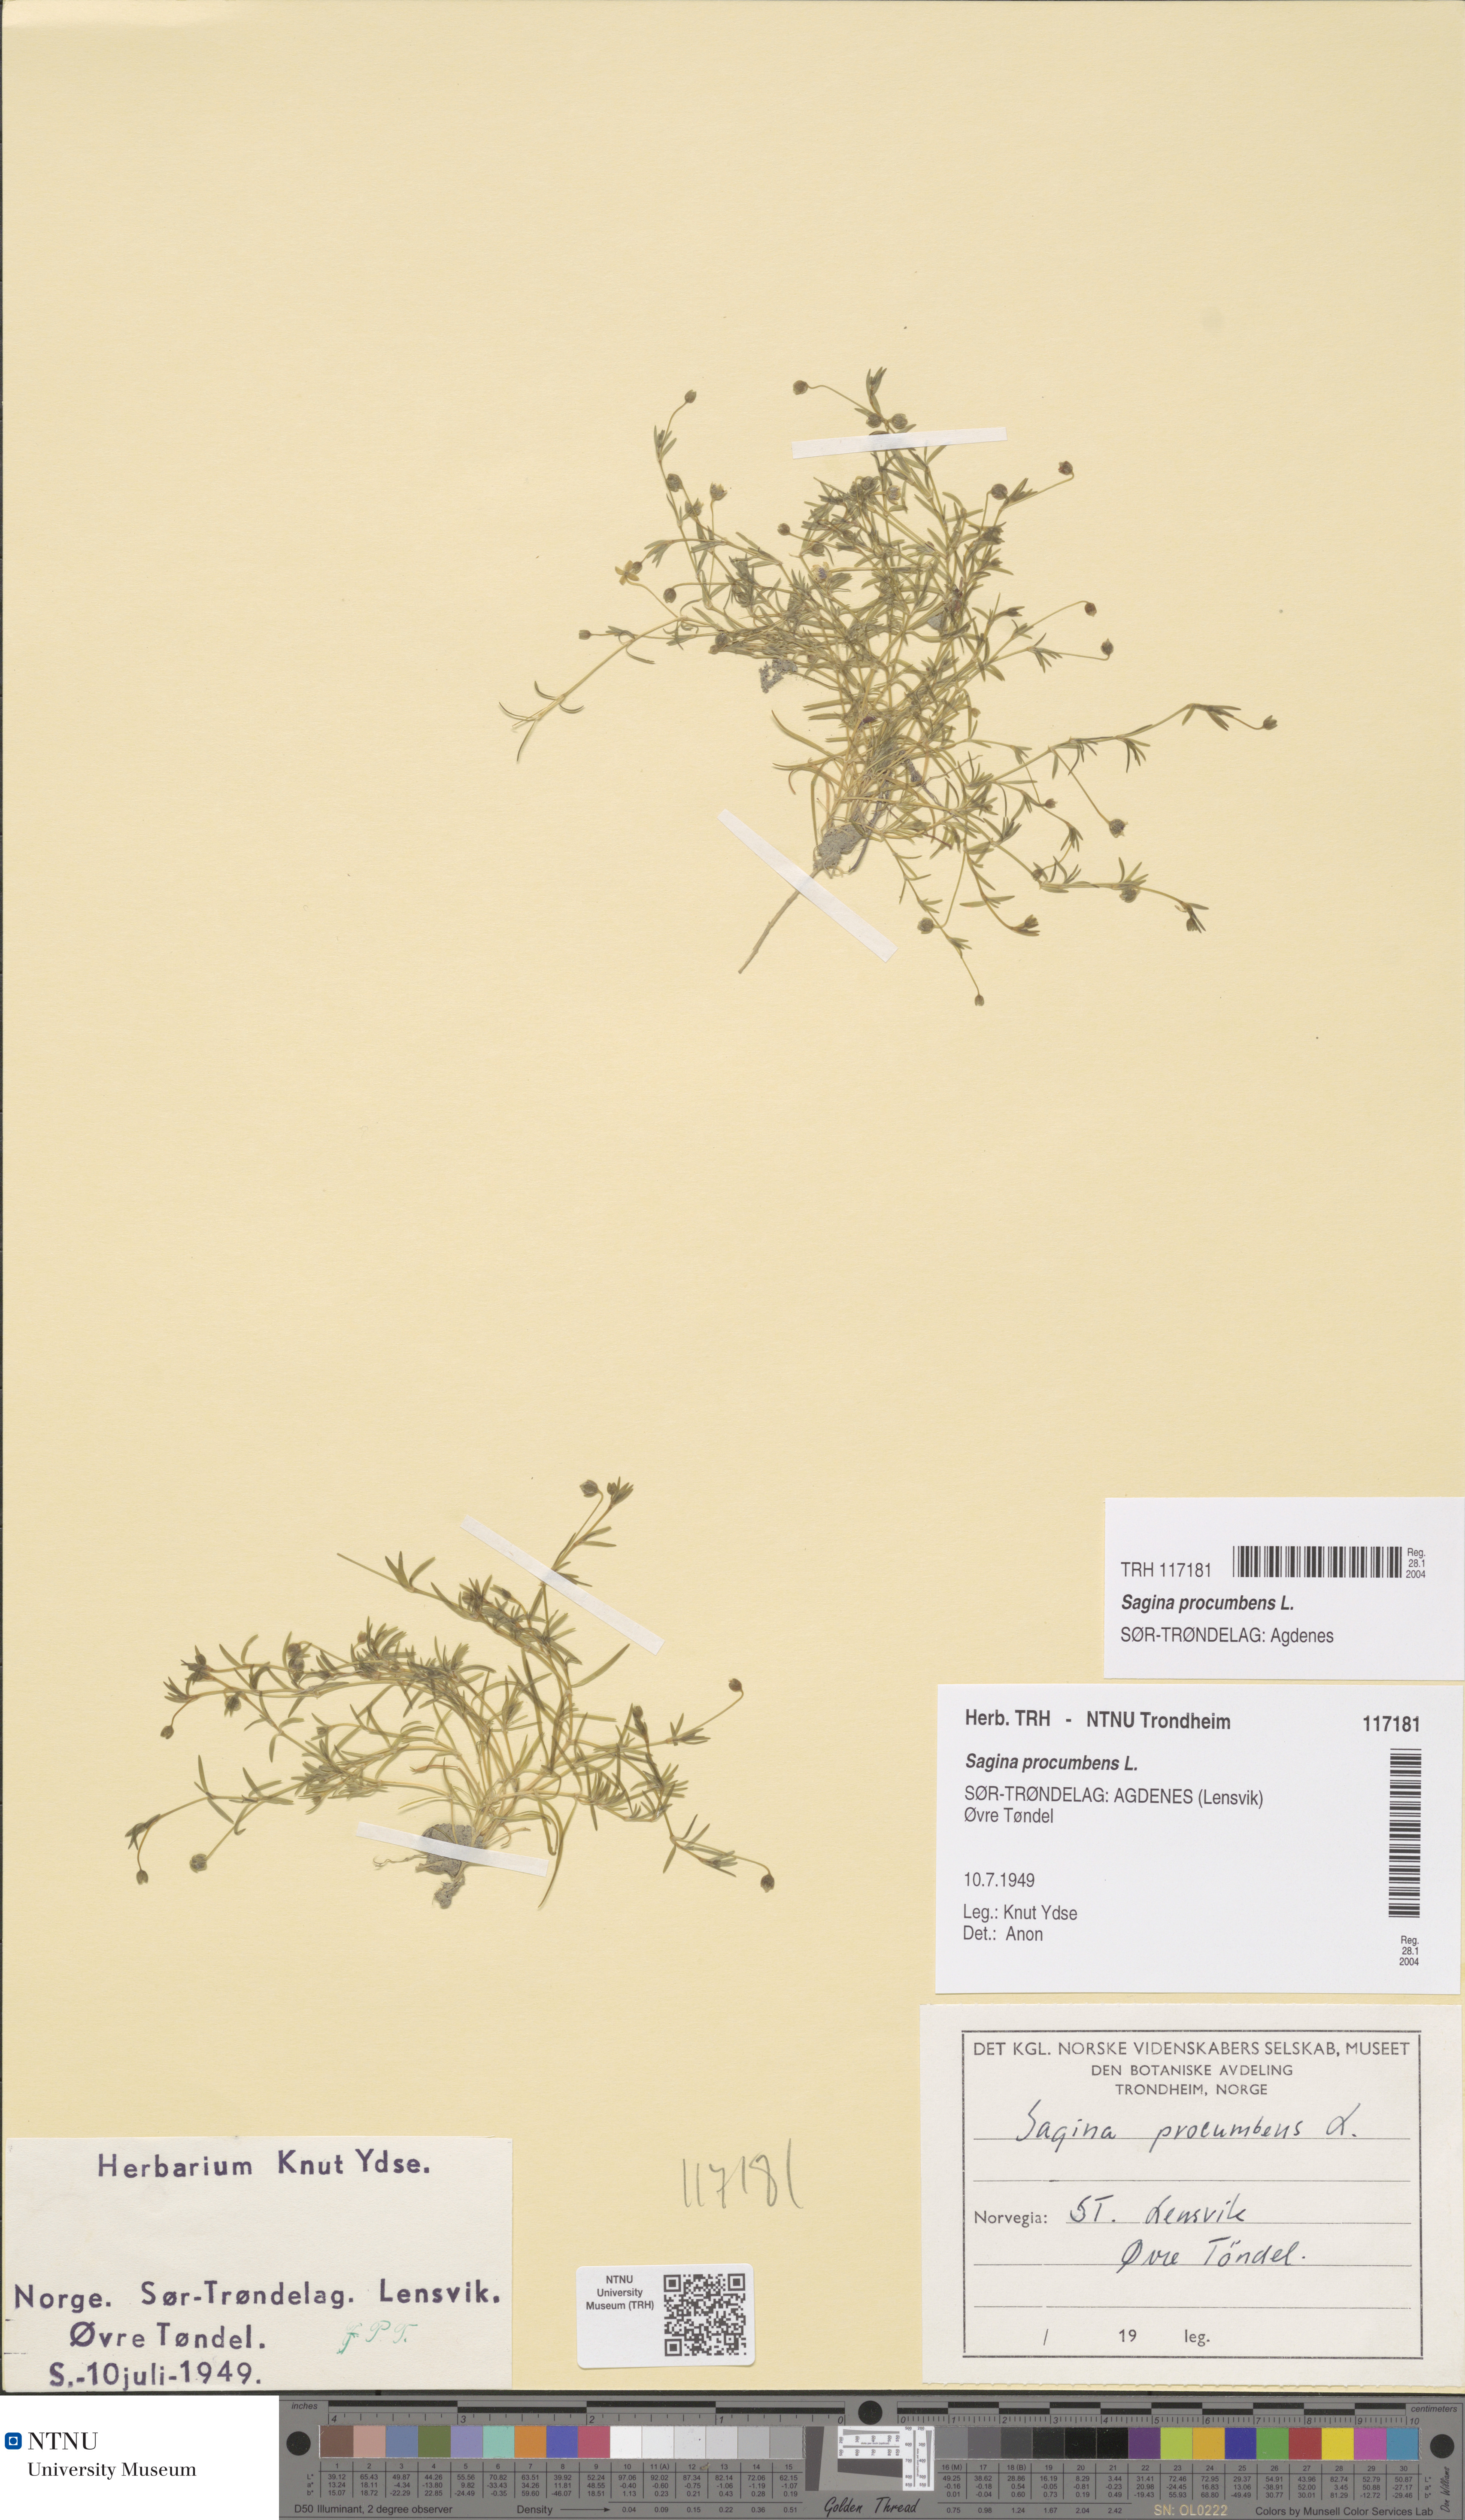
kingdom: Plantae
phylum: Tracheophyta
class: Magnoliopsida
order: Caryophyllales
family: Caryophyllaceae
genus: Sagina
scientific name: Sagina procumbens
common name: Procumbent pearlwort
